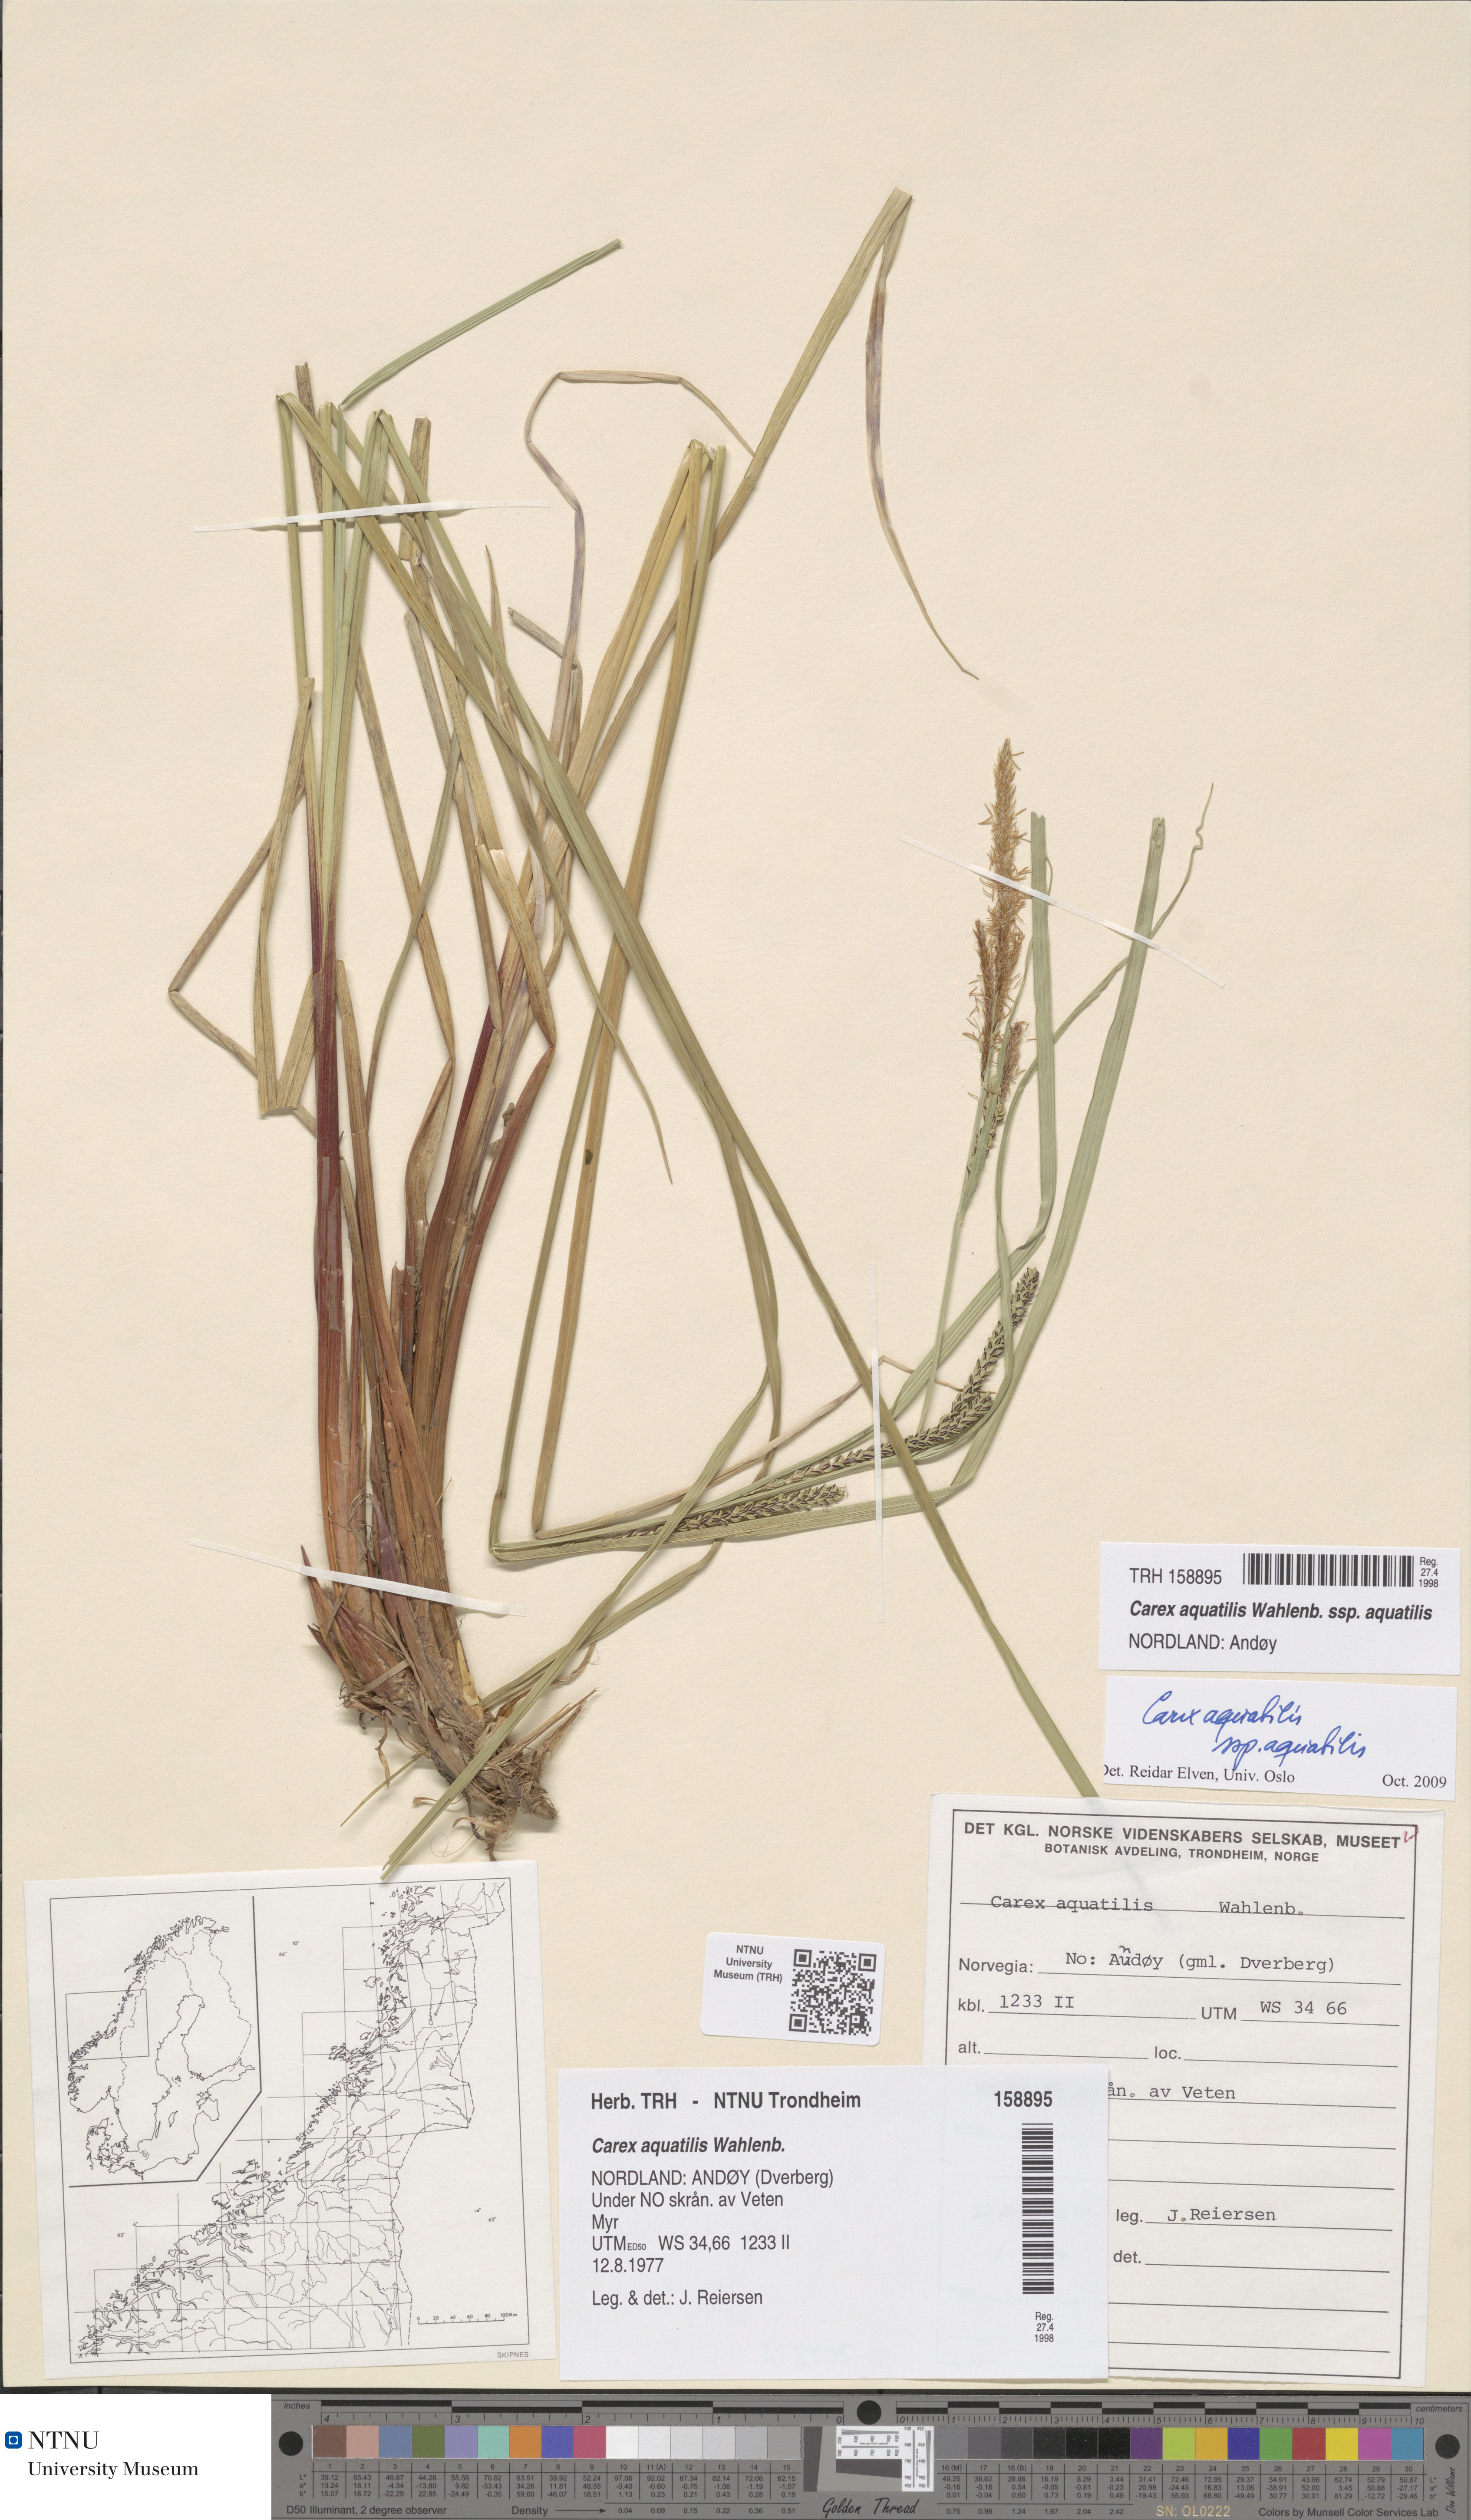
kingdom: Plantae
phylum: Tracheophyta
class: Liliopsida
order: Poales
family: Cyperaceae
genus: Carex
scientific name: Carex aquatilis
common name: Water sedge
